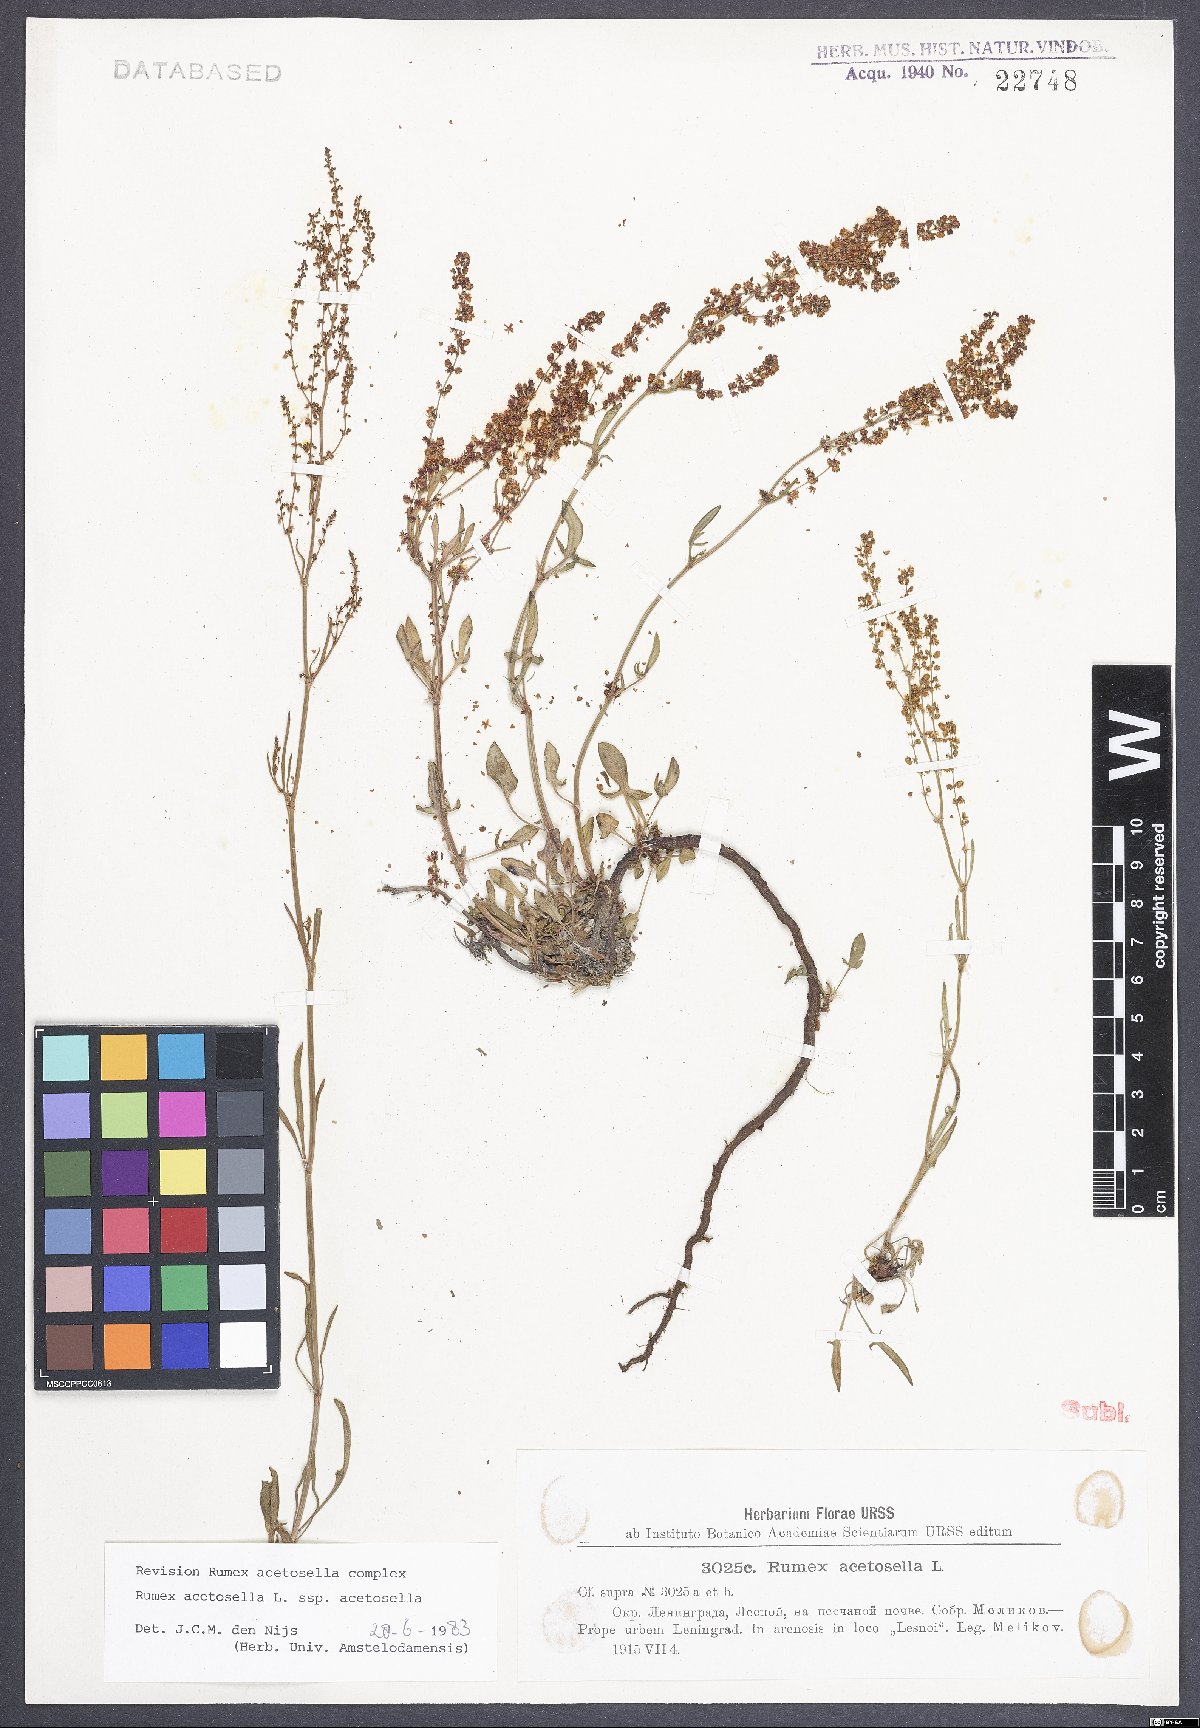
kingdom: Plantae
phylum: Tracheophyta
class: Magnoliopsida
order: Caryophyllales
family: Polygonaceae
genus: Rumex
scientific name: Rumex acetosella
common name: Common sheep sorrel
